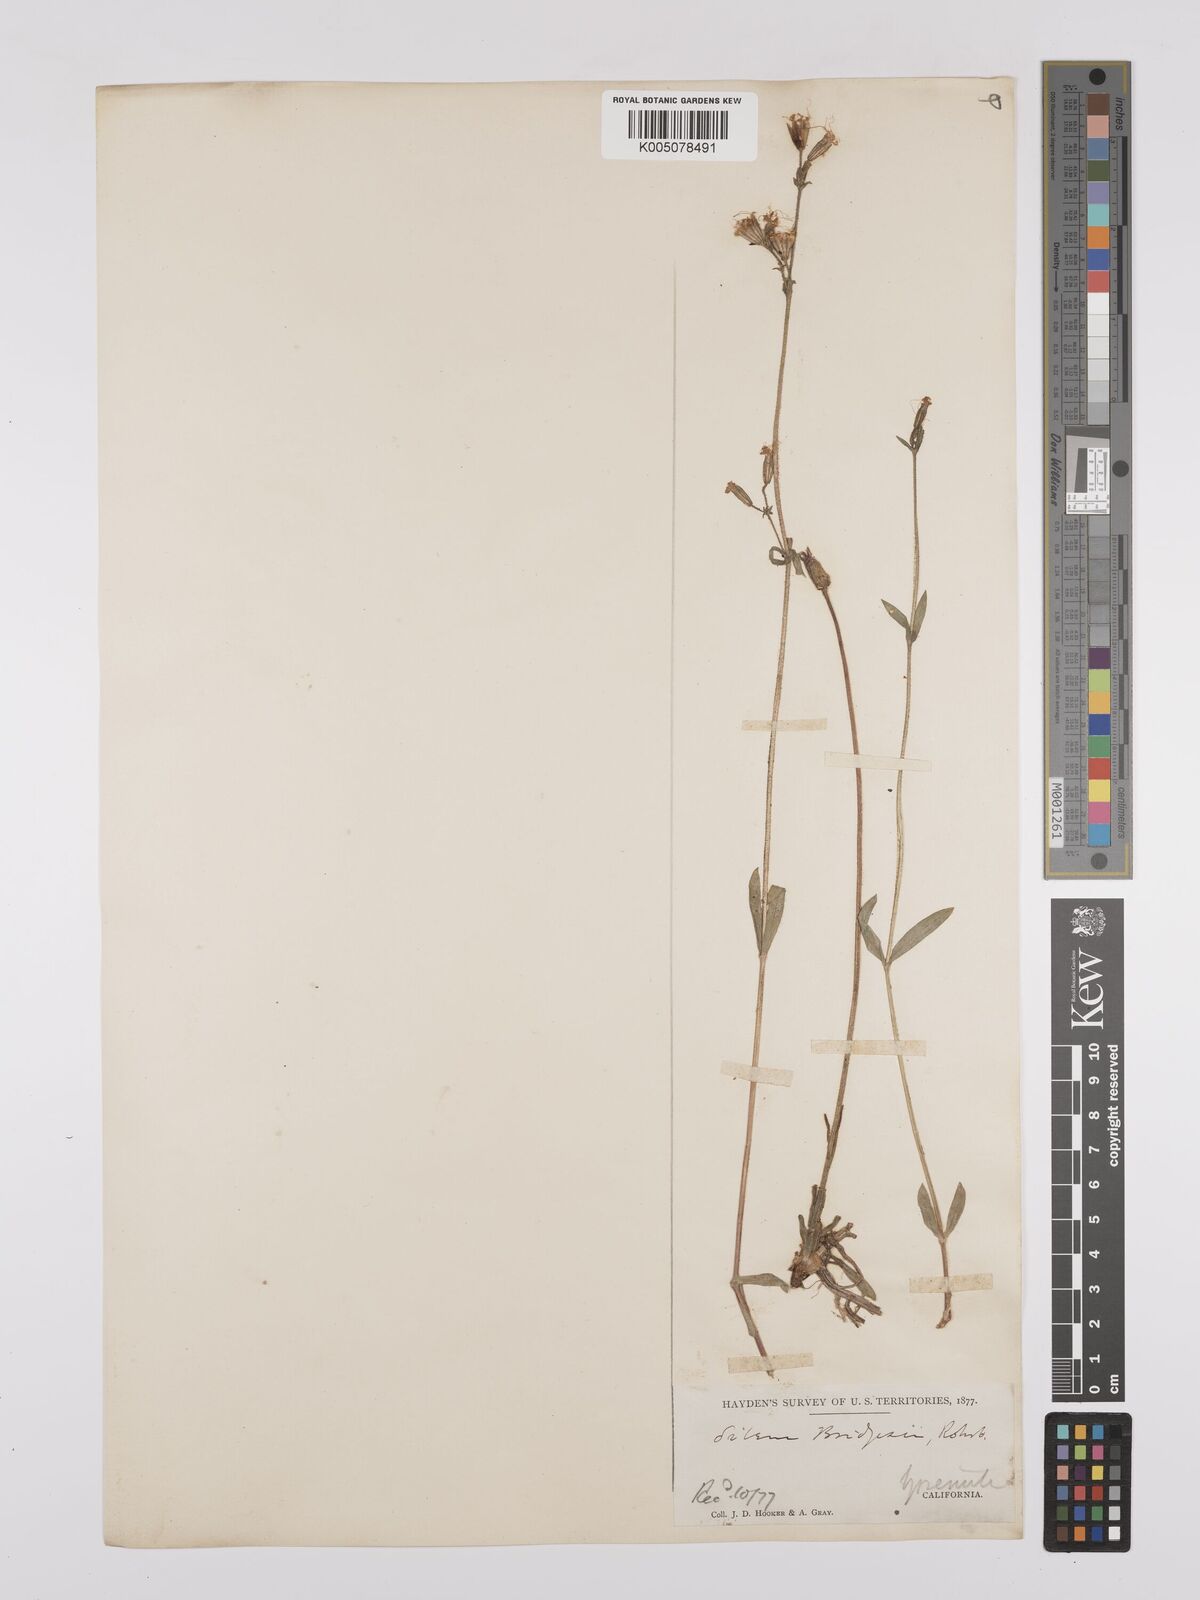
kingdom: Plantae
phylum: Tracheophyta
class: Magnoliopsida
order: Caryophyllales
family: Caryophyllaceae
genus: Silene
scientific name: Silene bridgesii
